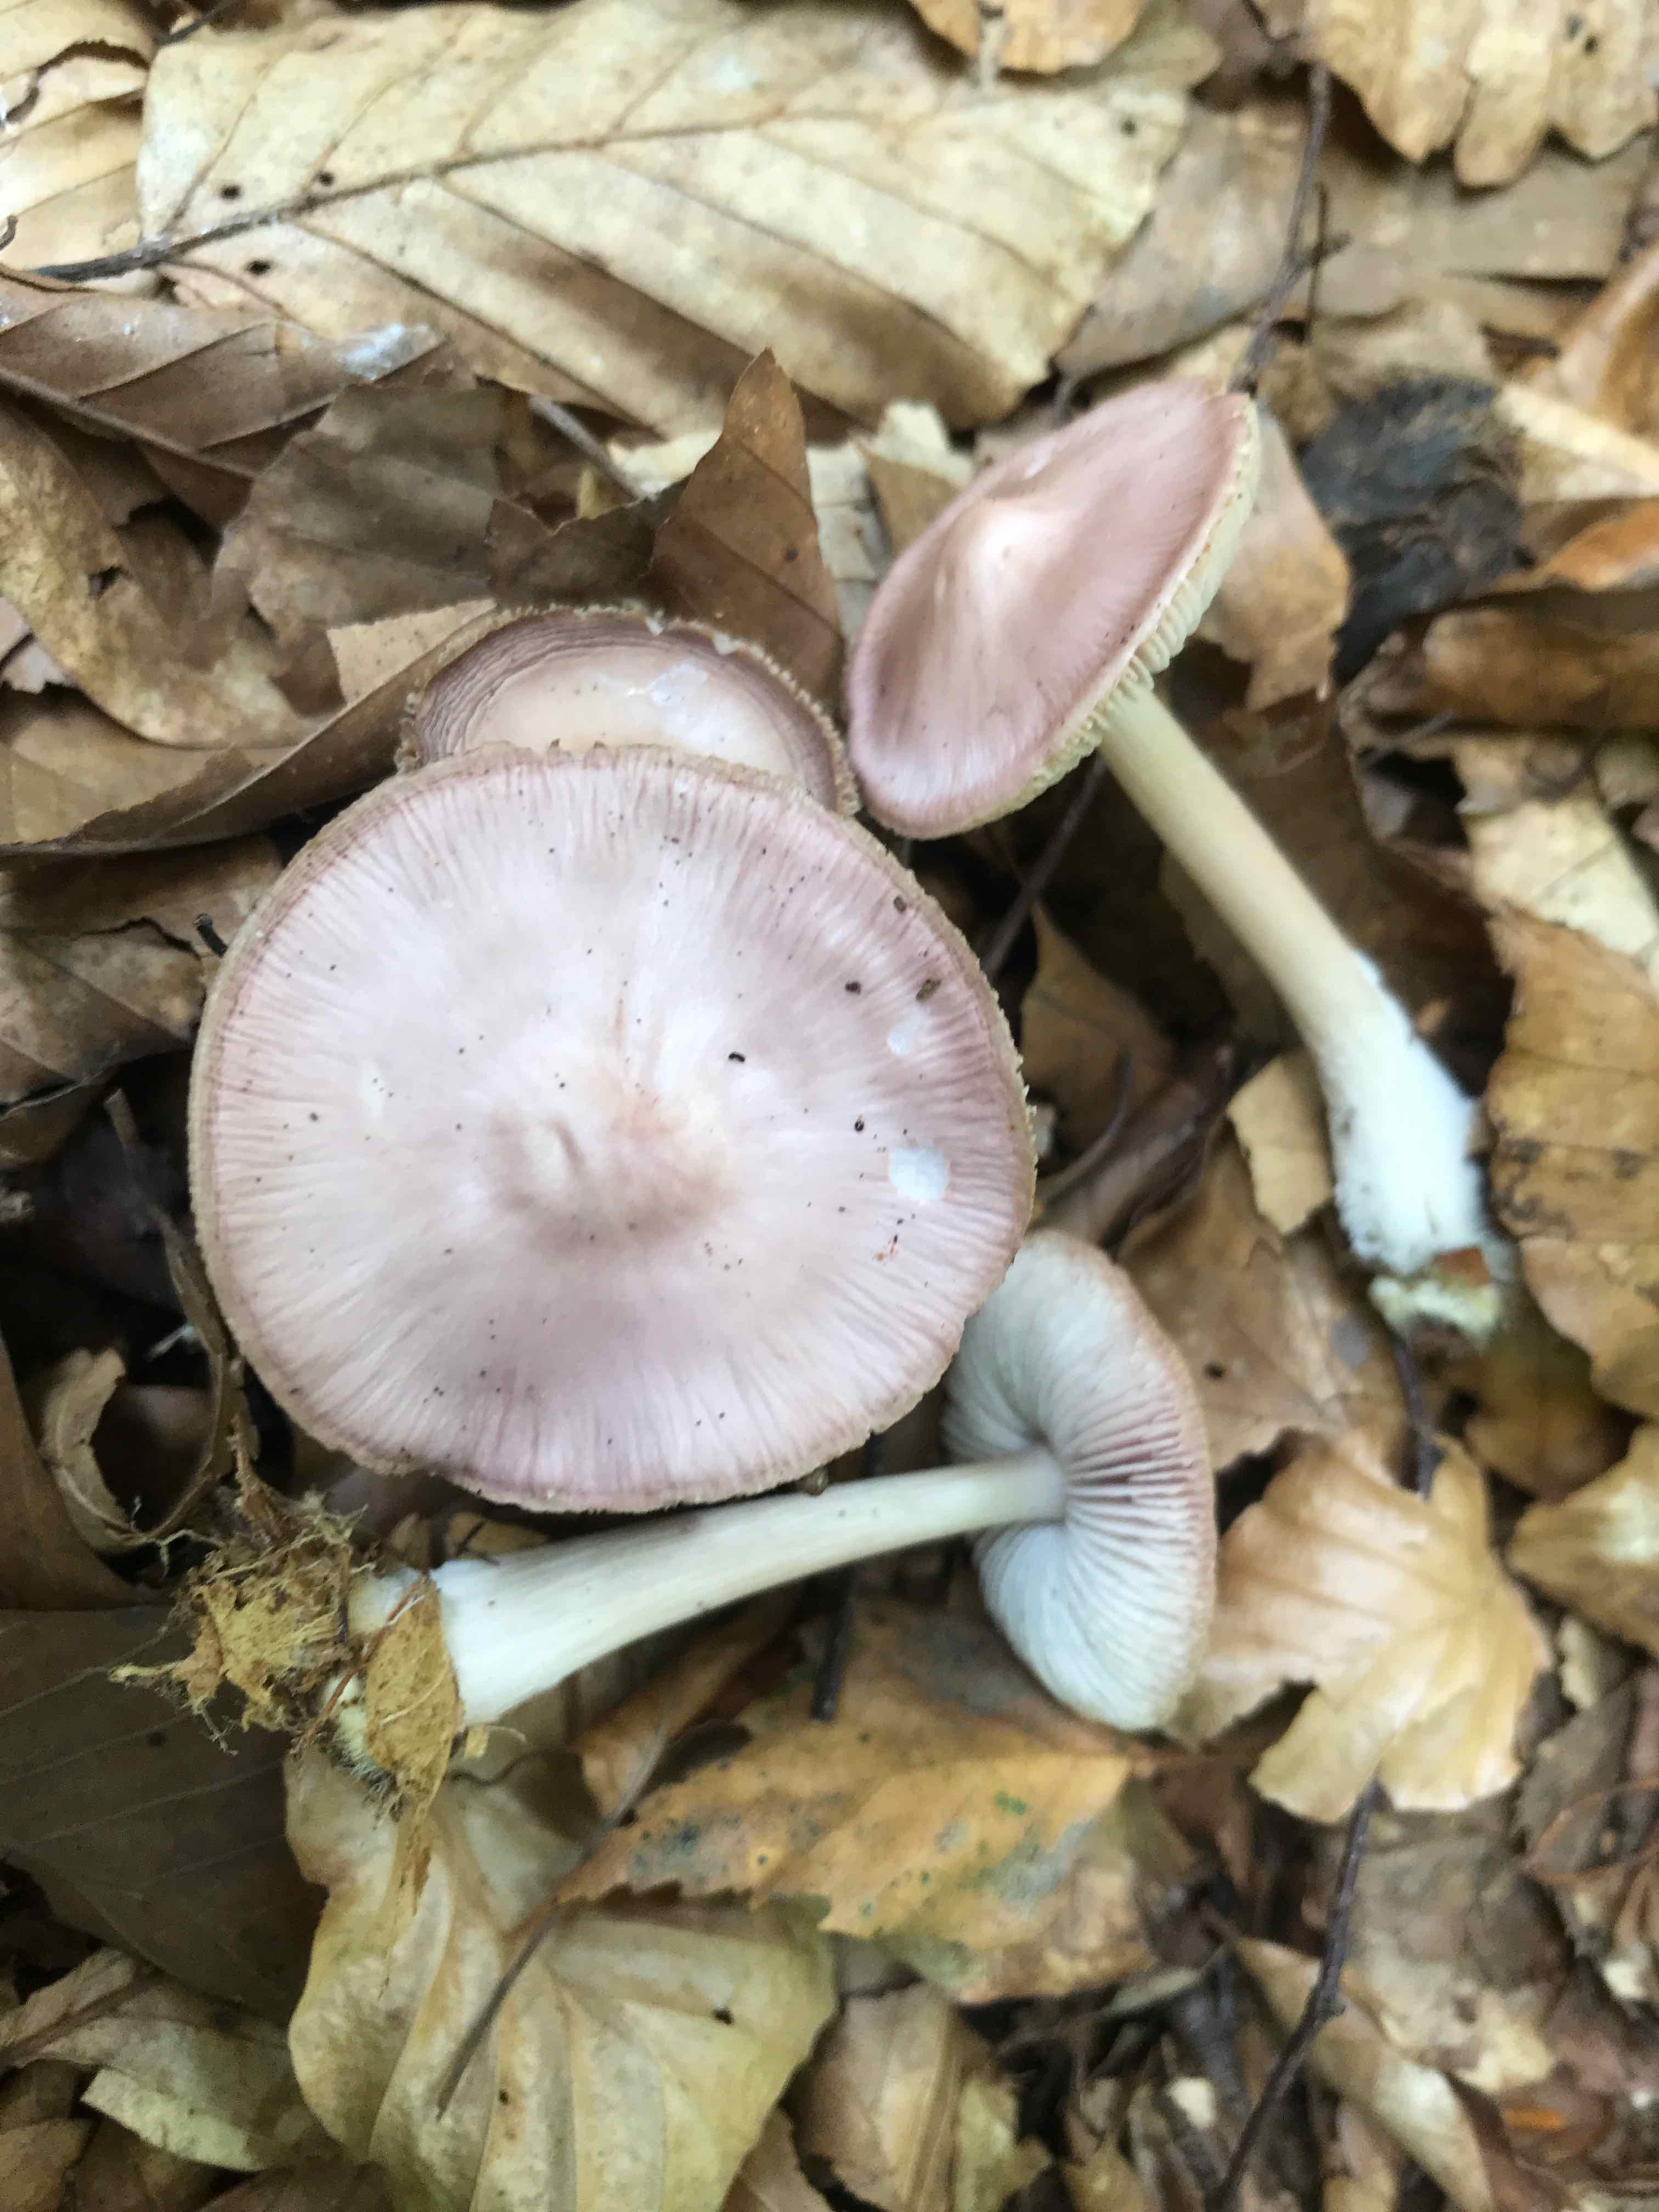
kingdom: Fungi
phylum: Basidiomycota
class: Agaricomycetes
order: Agaricales
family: Mycenaceae
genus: Mycena
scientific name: Mycena rosea
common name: rosa huesvamp
